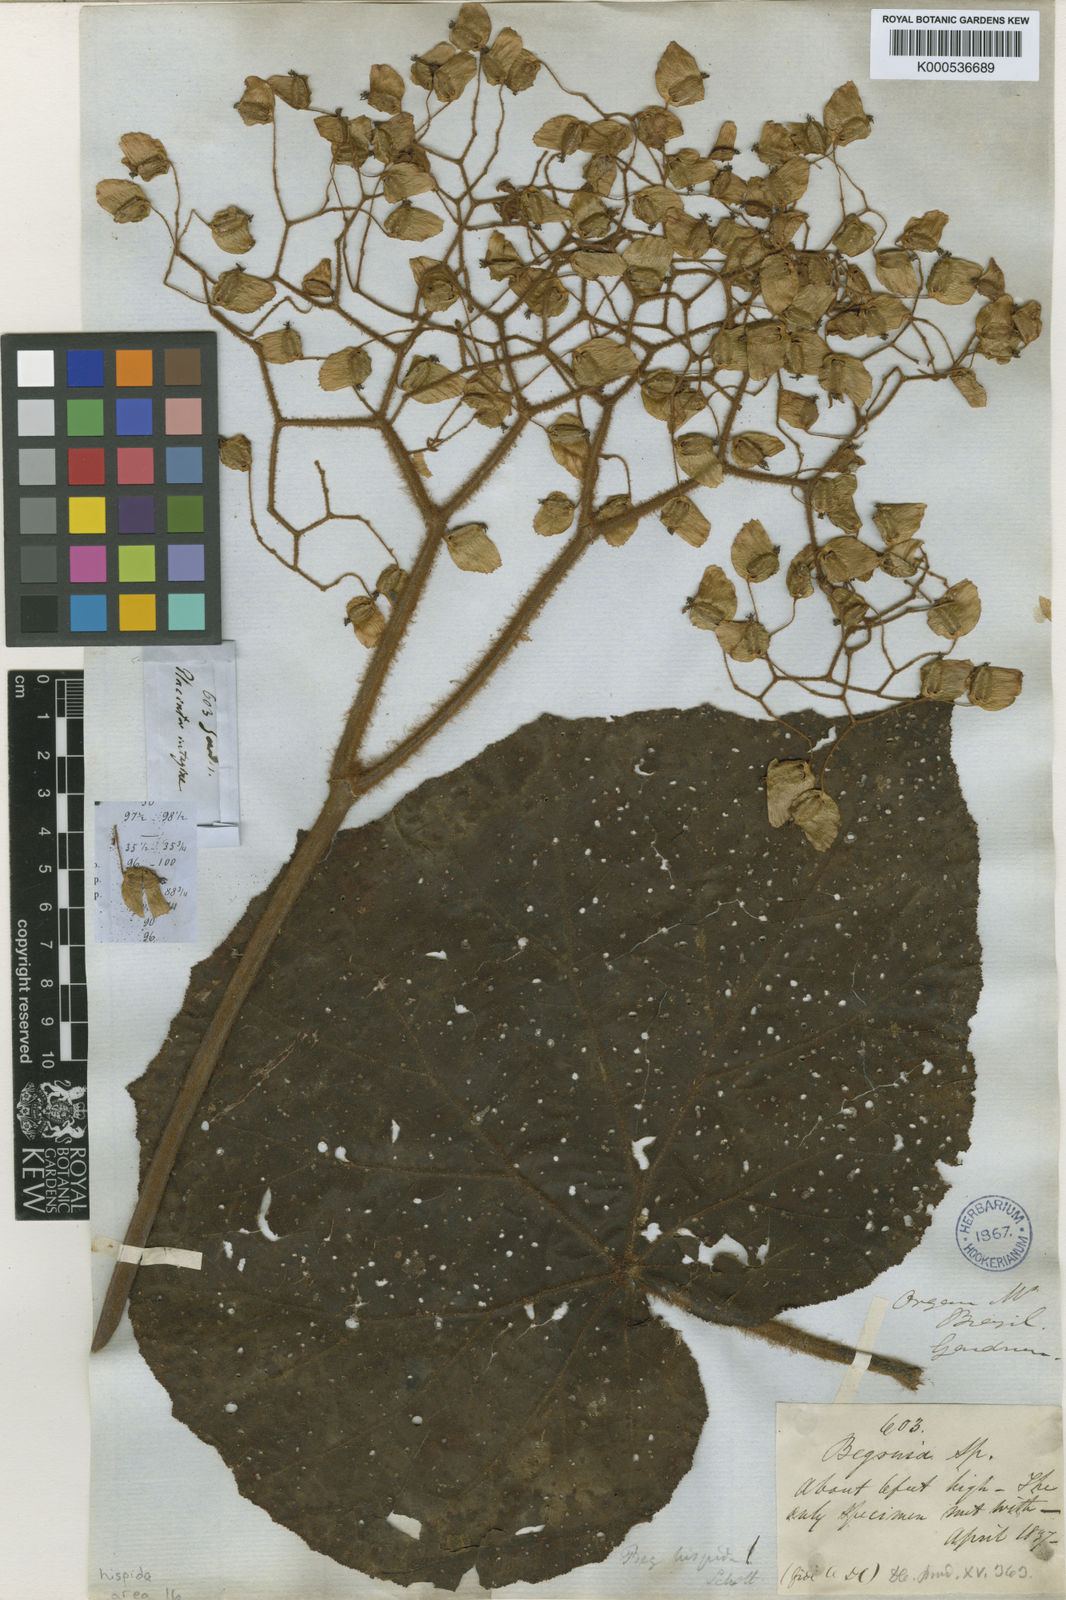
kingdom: Plantae
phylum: Tracheophyta
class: Magnoliopsida
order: Cucurbitales
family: Begoniaceae
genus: Begonia
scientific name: Begonia
